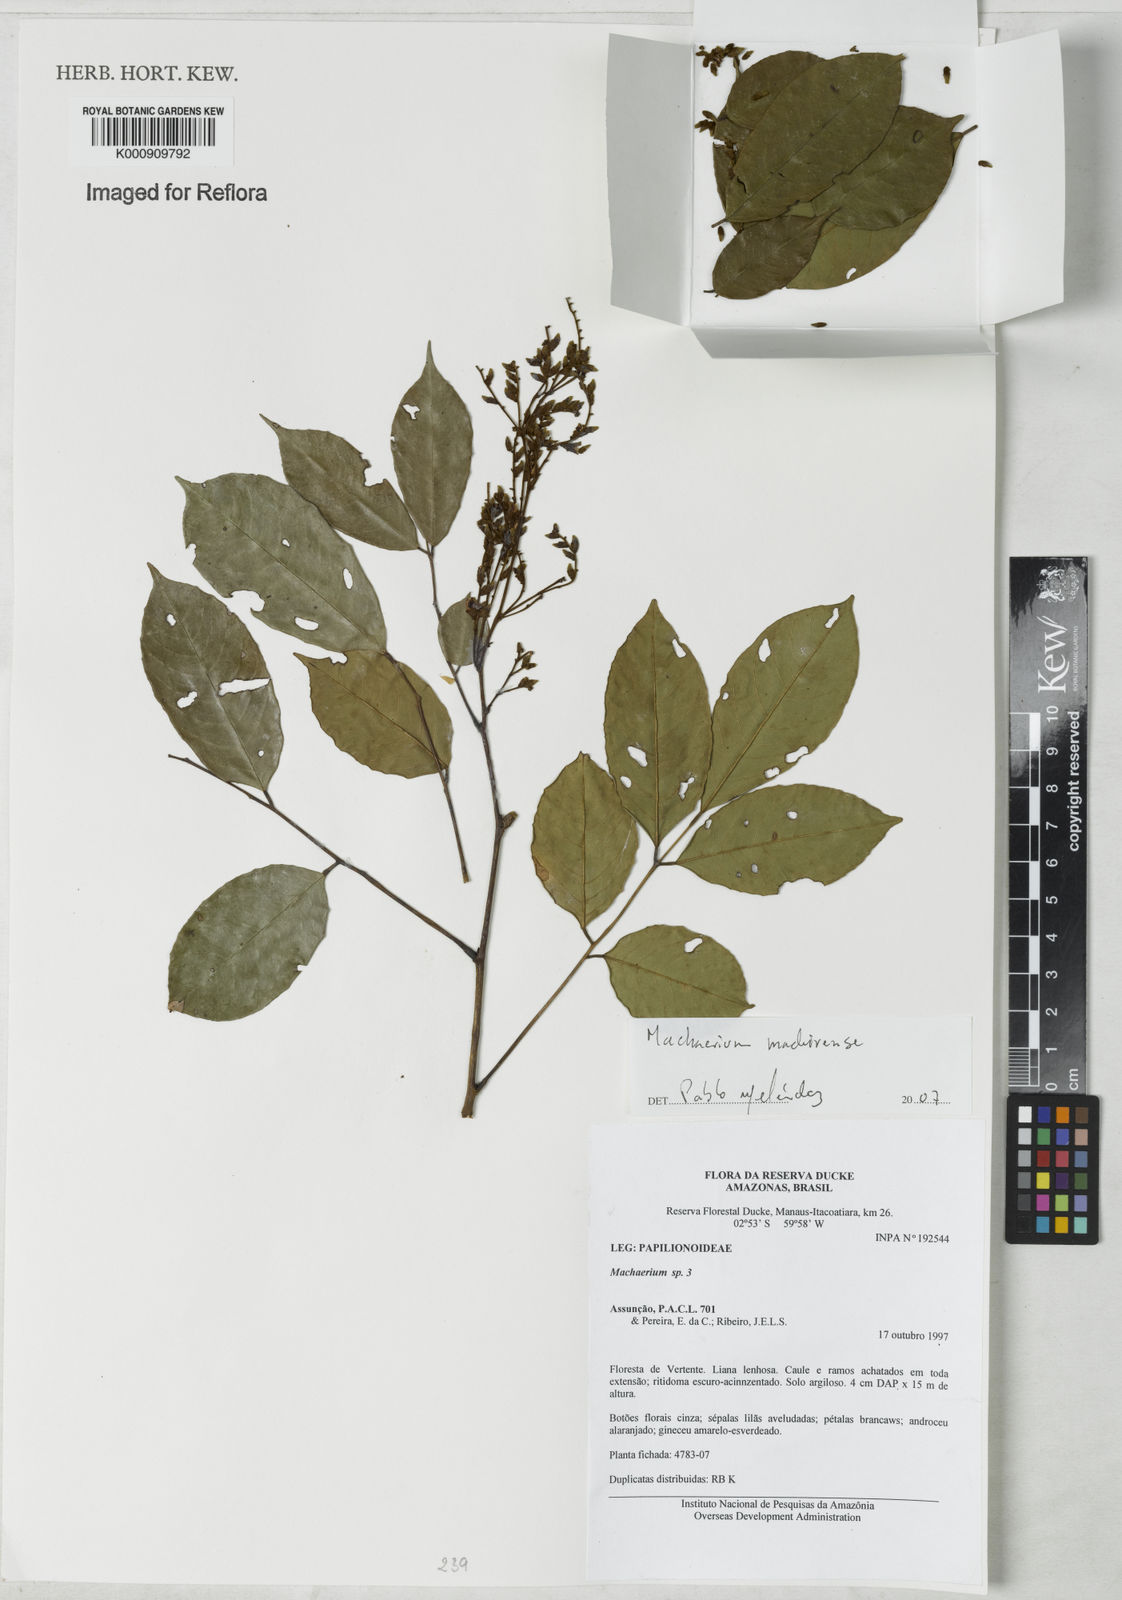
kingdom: Plantae
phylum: Tracheophyta
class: Magnoliopsida
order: Fabales
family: Fabaceae
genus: Machaerium
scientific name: Machaerium madeirense
